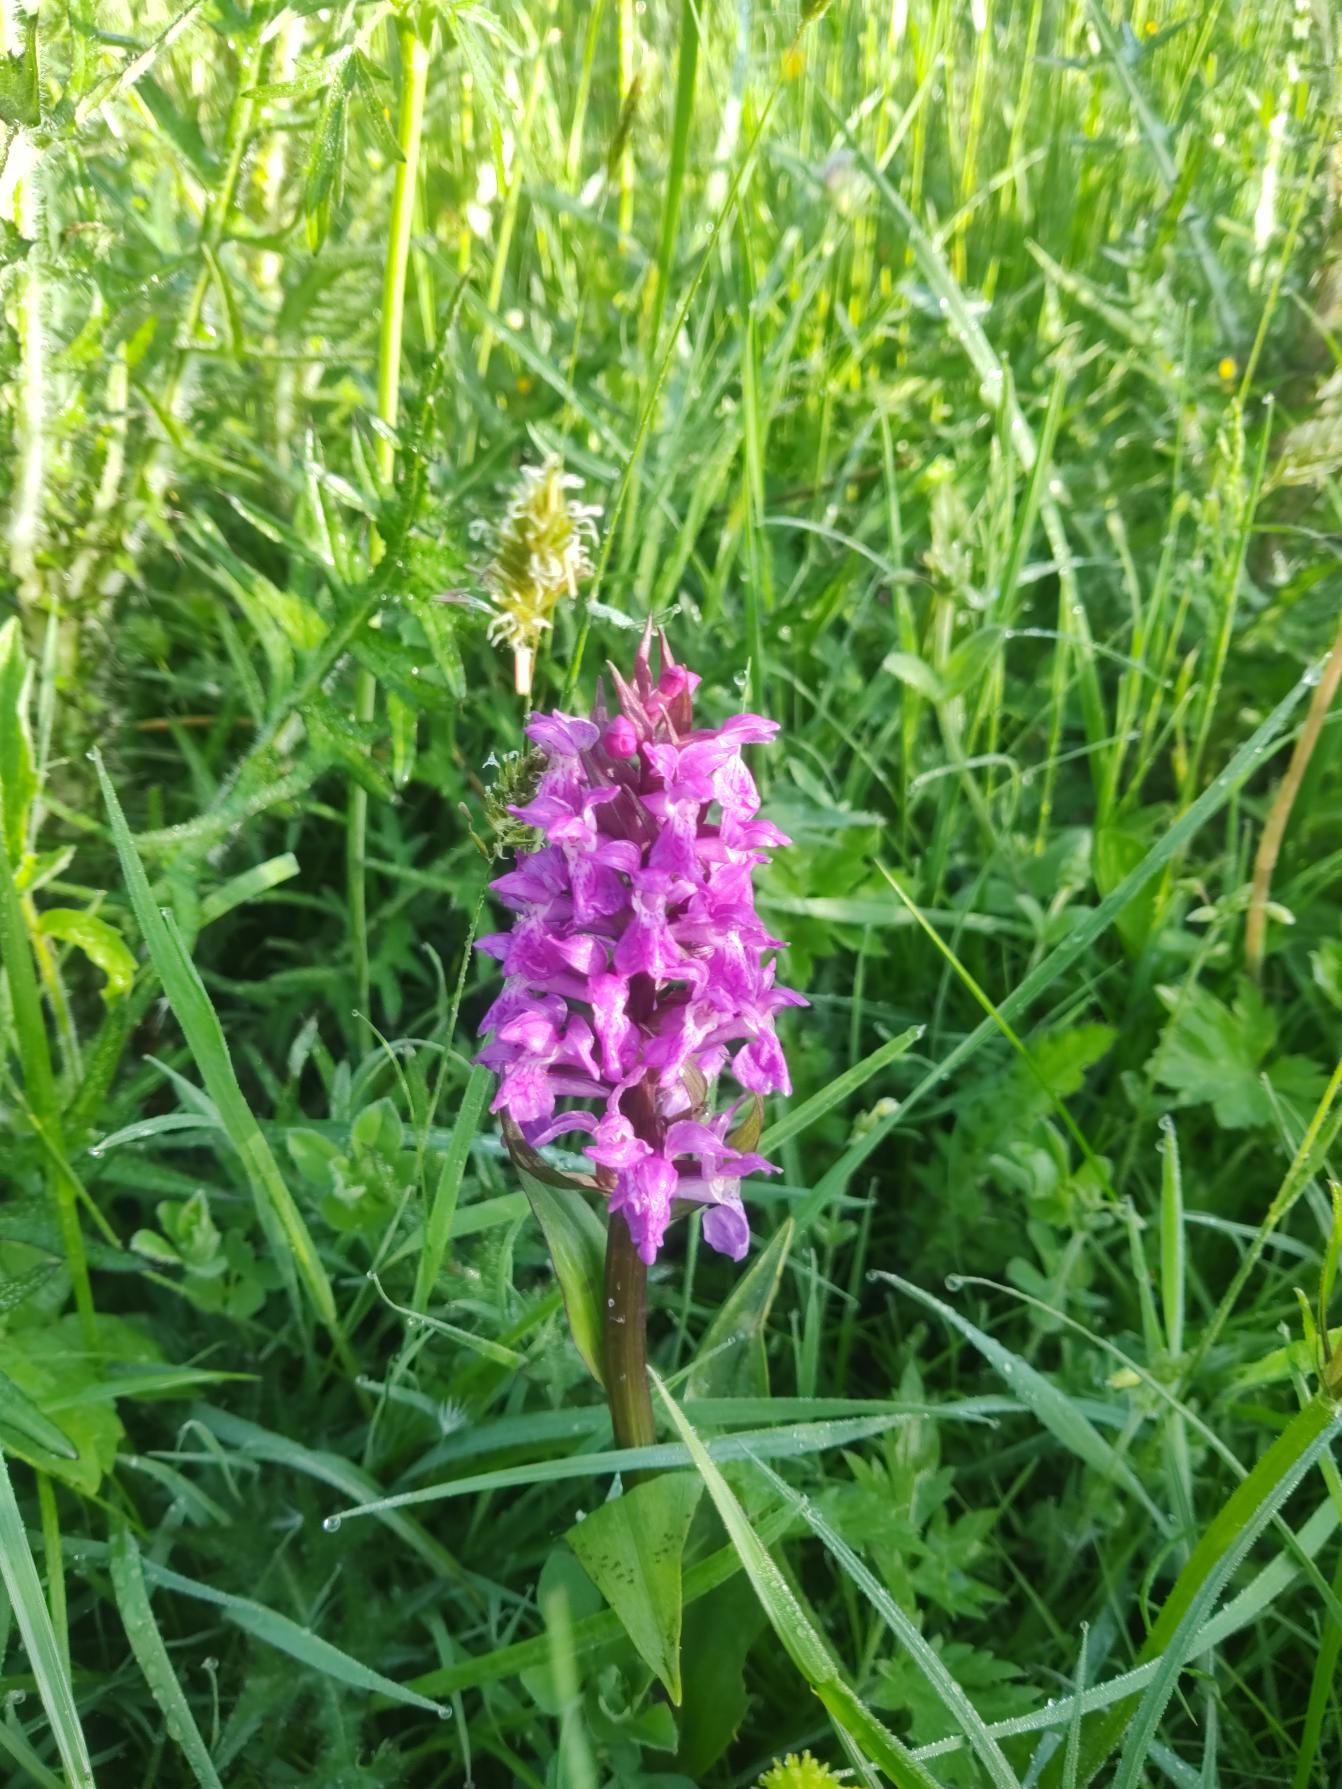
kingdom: Plantae
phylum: Tracheophyta
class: Liliopsida
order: Asparagales
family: Orchidaceae
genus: Dactylorhiza
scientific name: Dactylorhiza majalis
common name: Maj-gøgeurt
